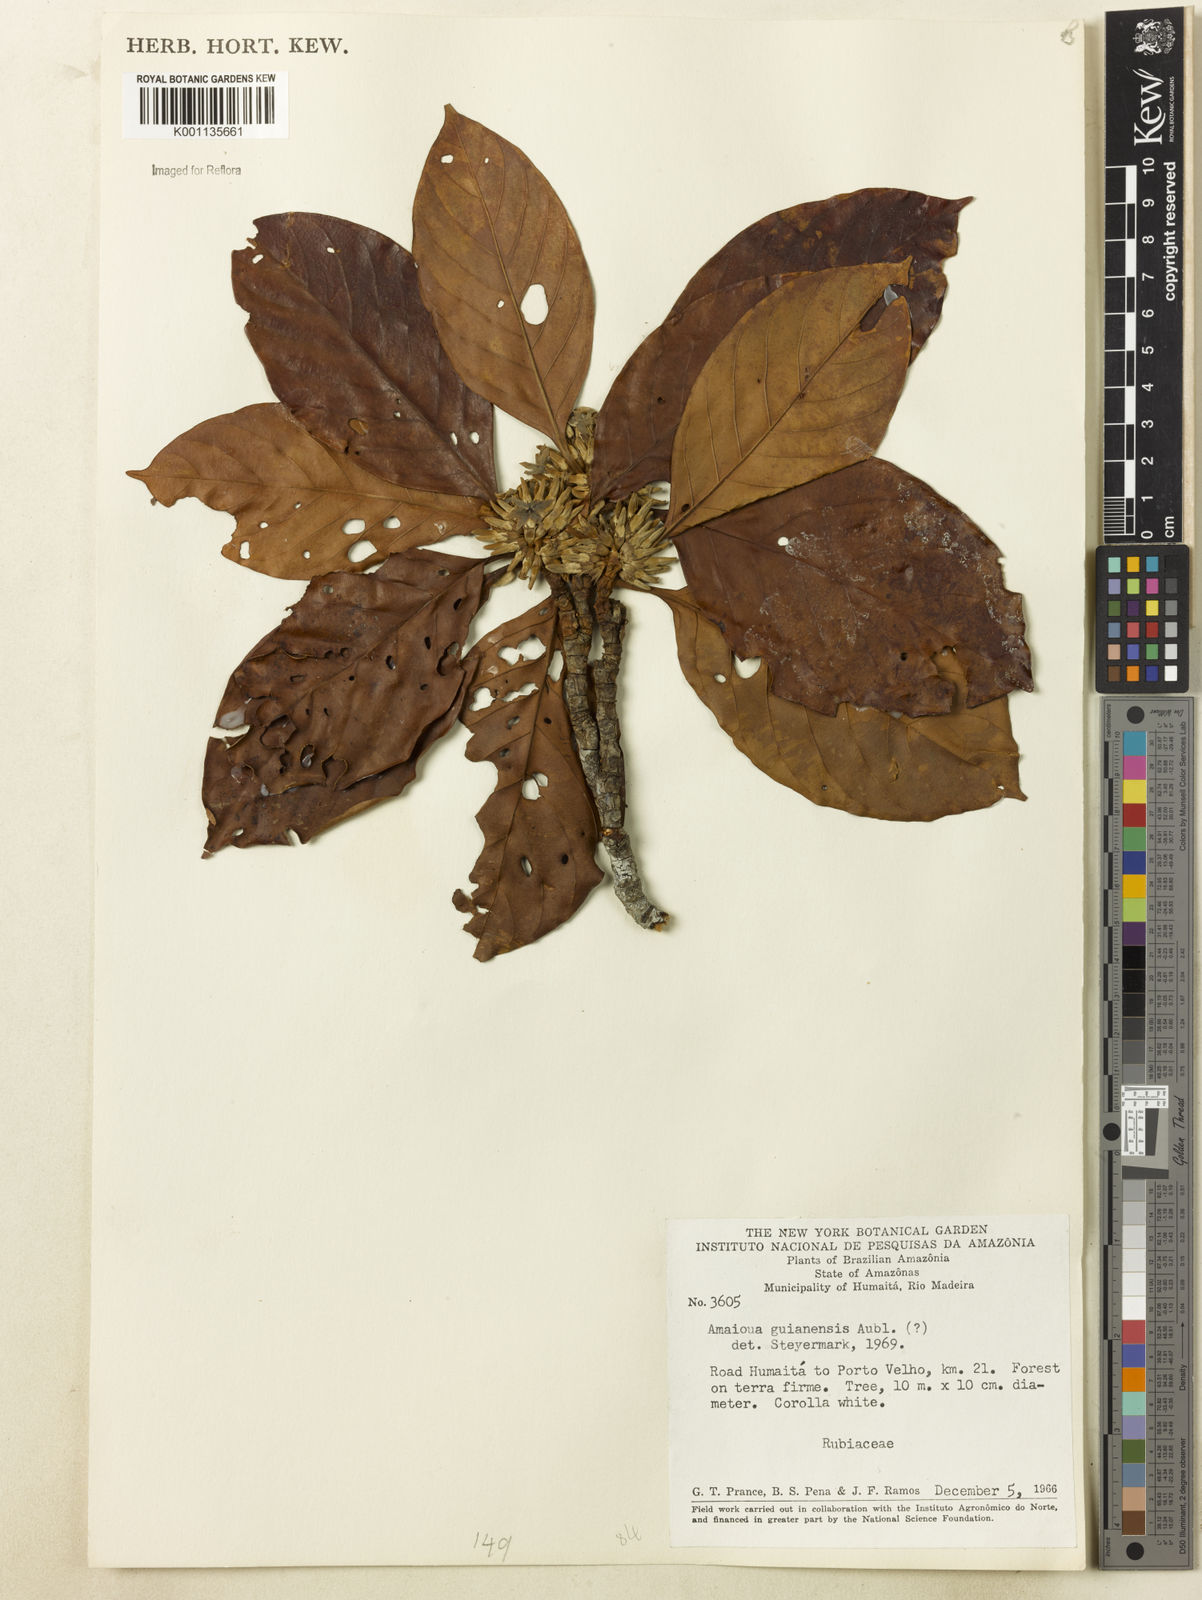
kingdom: Plantae
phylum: Tracheophyta
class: Magnoliopsida
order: Gentianales
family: Rubiaceae
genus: Amaioua
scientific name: Amaioua guianensis
